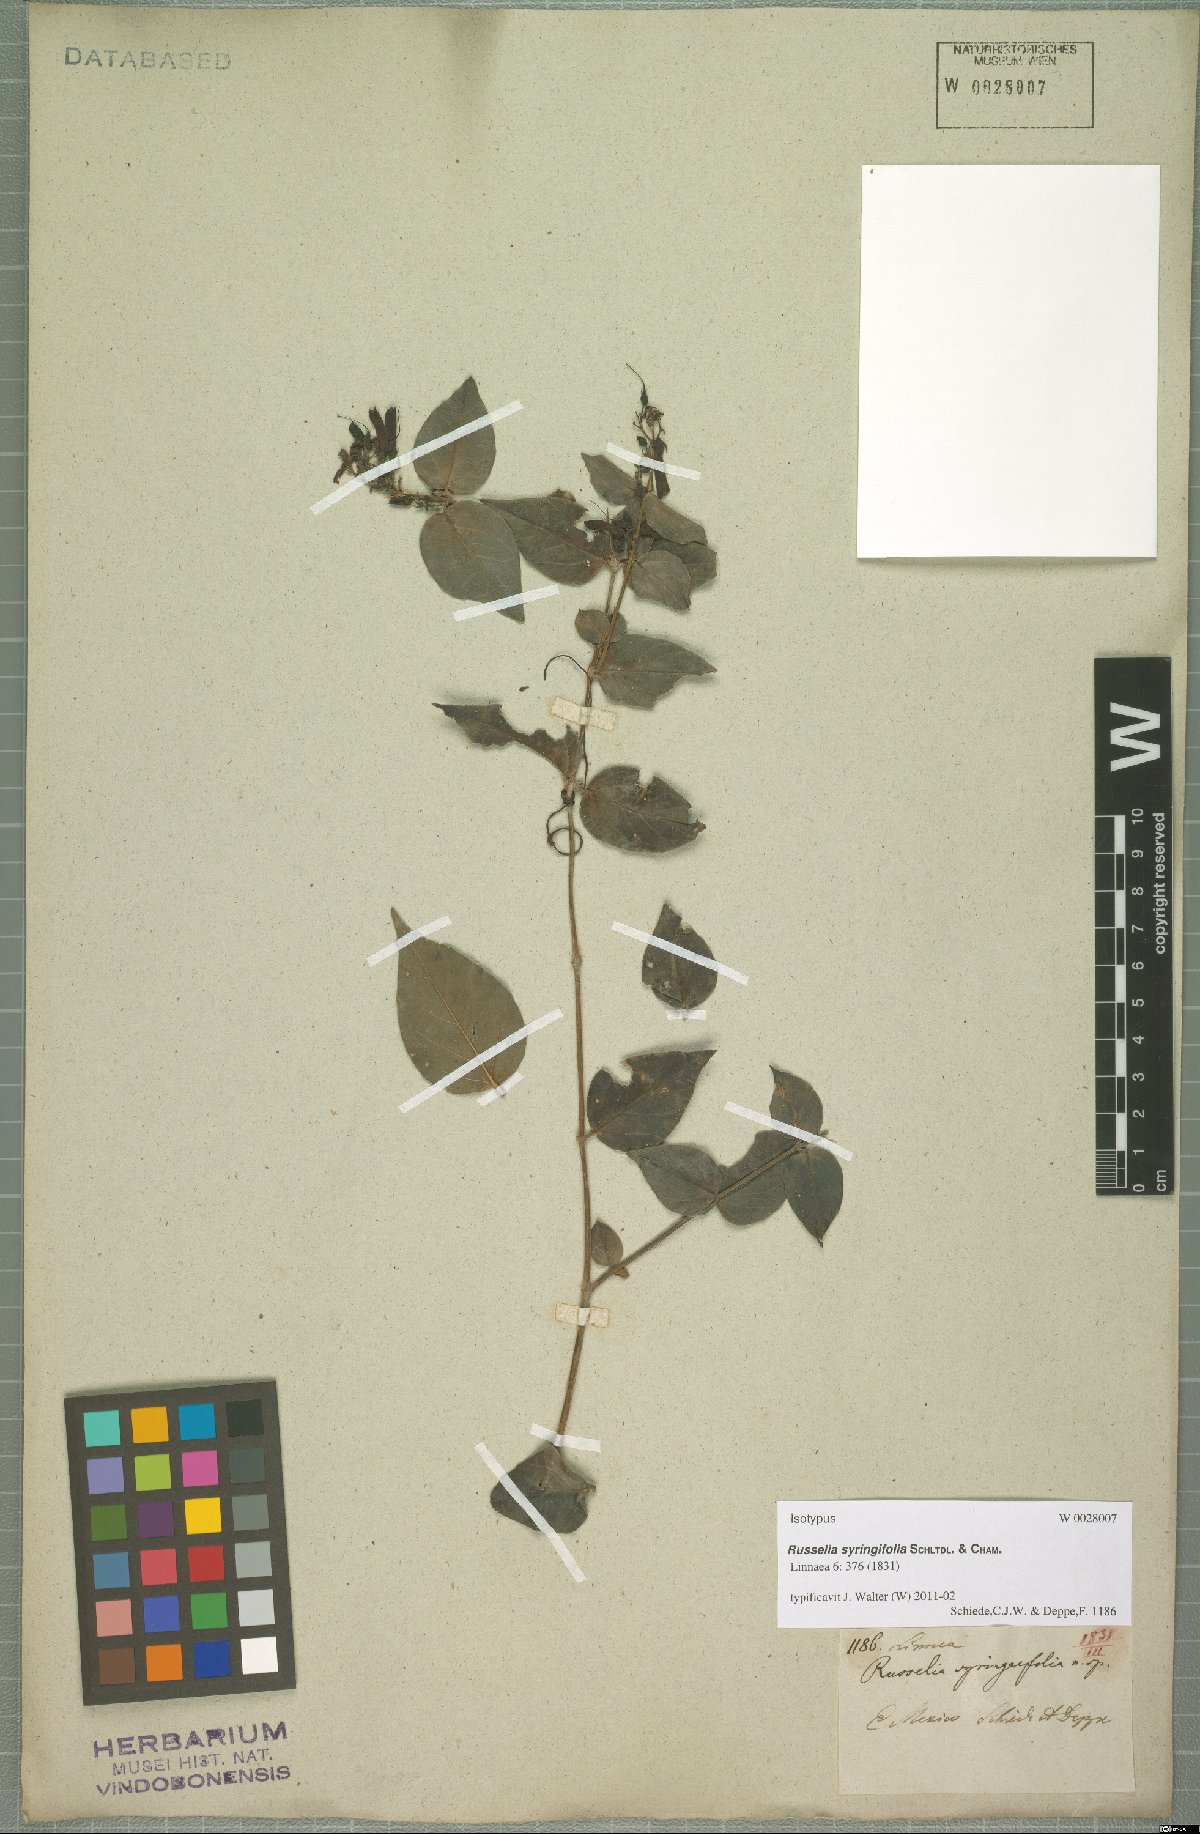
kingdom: Plantae
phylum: Tracheophyta
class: Magnoliopsida
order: Lamiales
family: Plantaginaceae
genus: Russelia
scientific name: Russelia syringifolia
